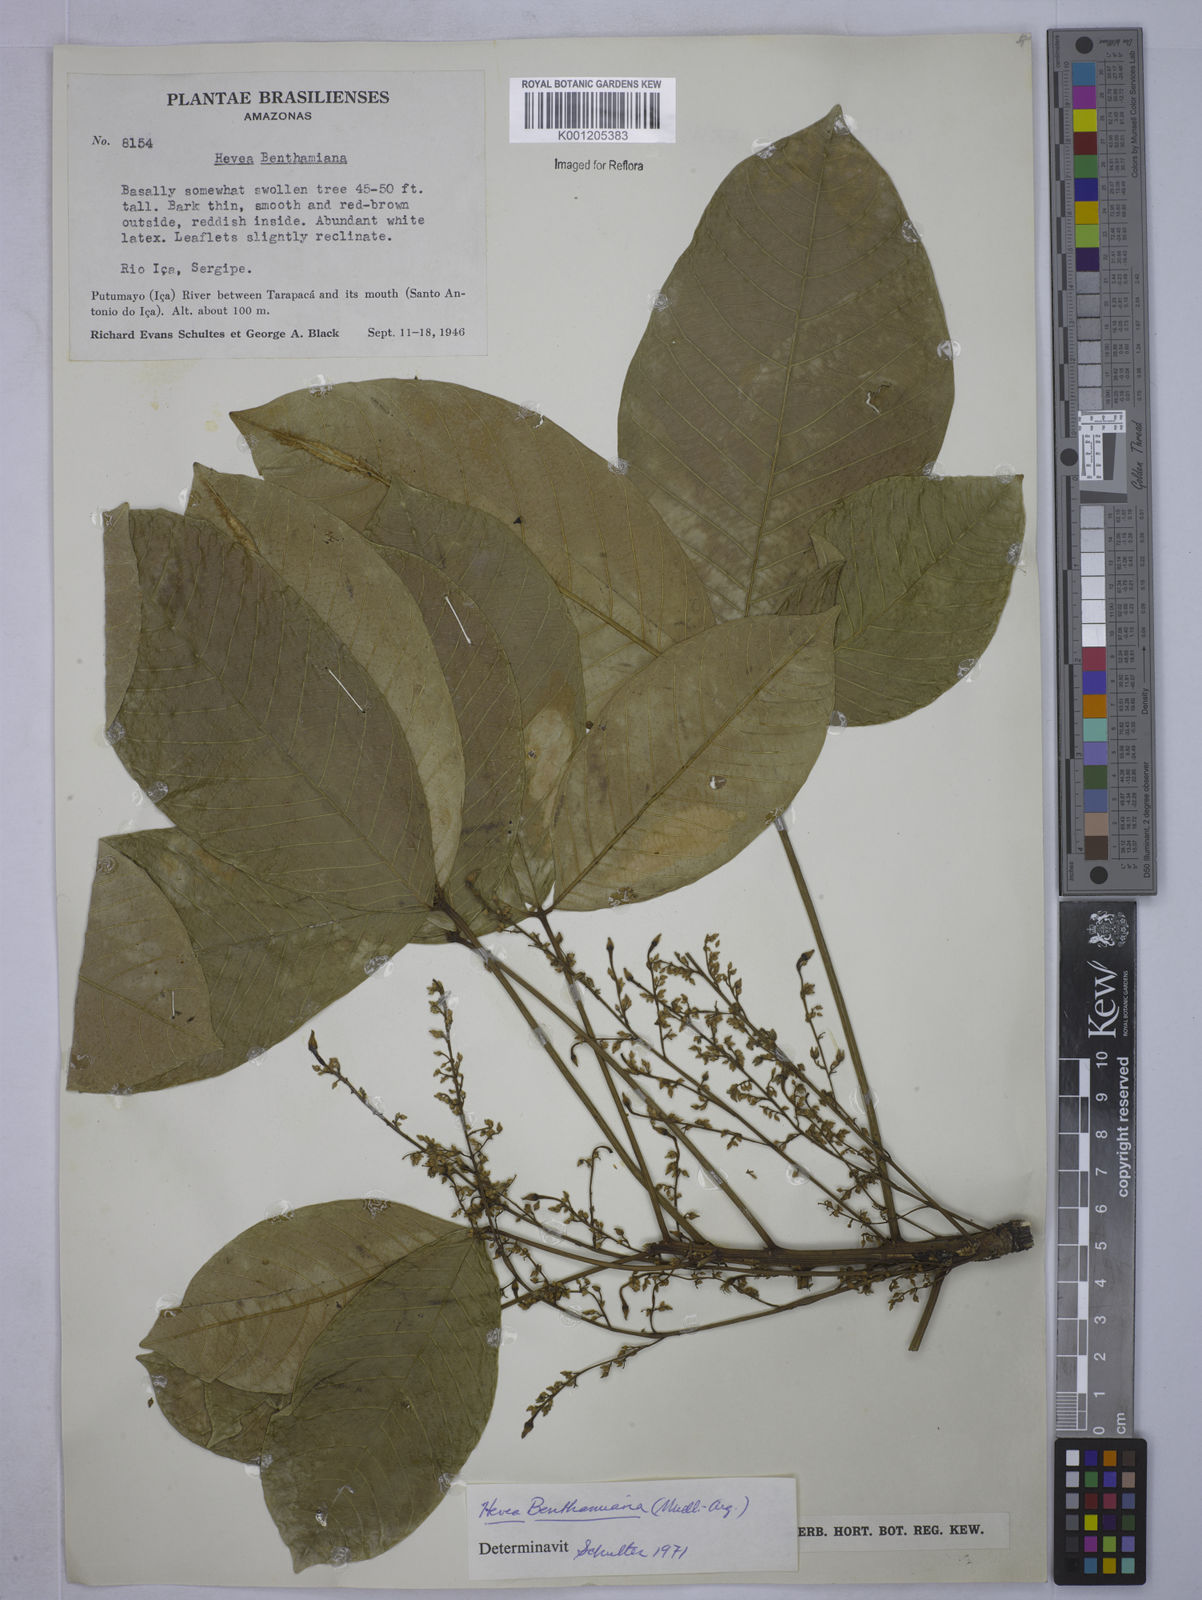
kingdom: Plantae
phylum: Tracheophyta
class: Magnoliopsida
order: Malpighiales
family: Euphorbiaceae
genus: Hevea
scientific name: Hevea
